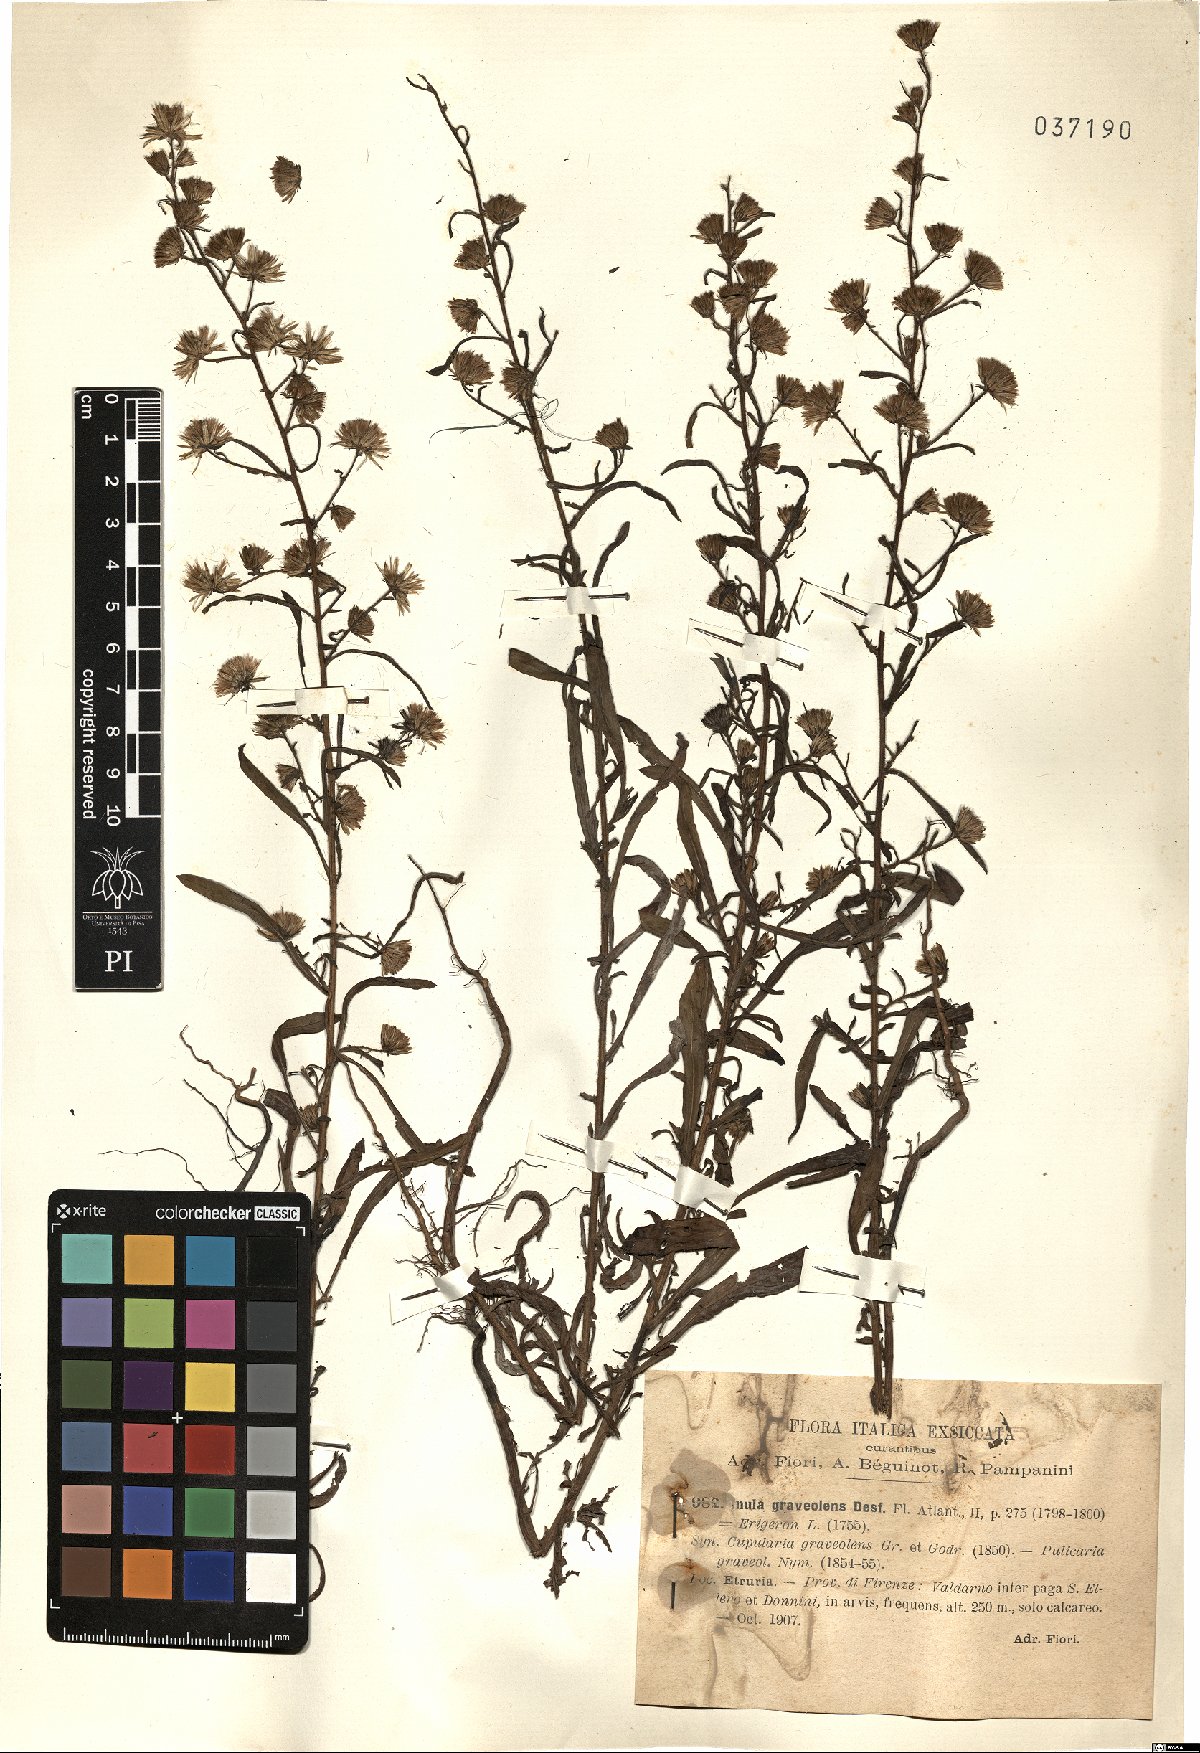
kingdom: Plantae
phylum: Tracheophyta
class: Magnoliopsida
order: Asterales
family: Asteraceae
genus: Dittrichia
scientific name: Dittrichia graveolens
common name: Stinking fleabane
